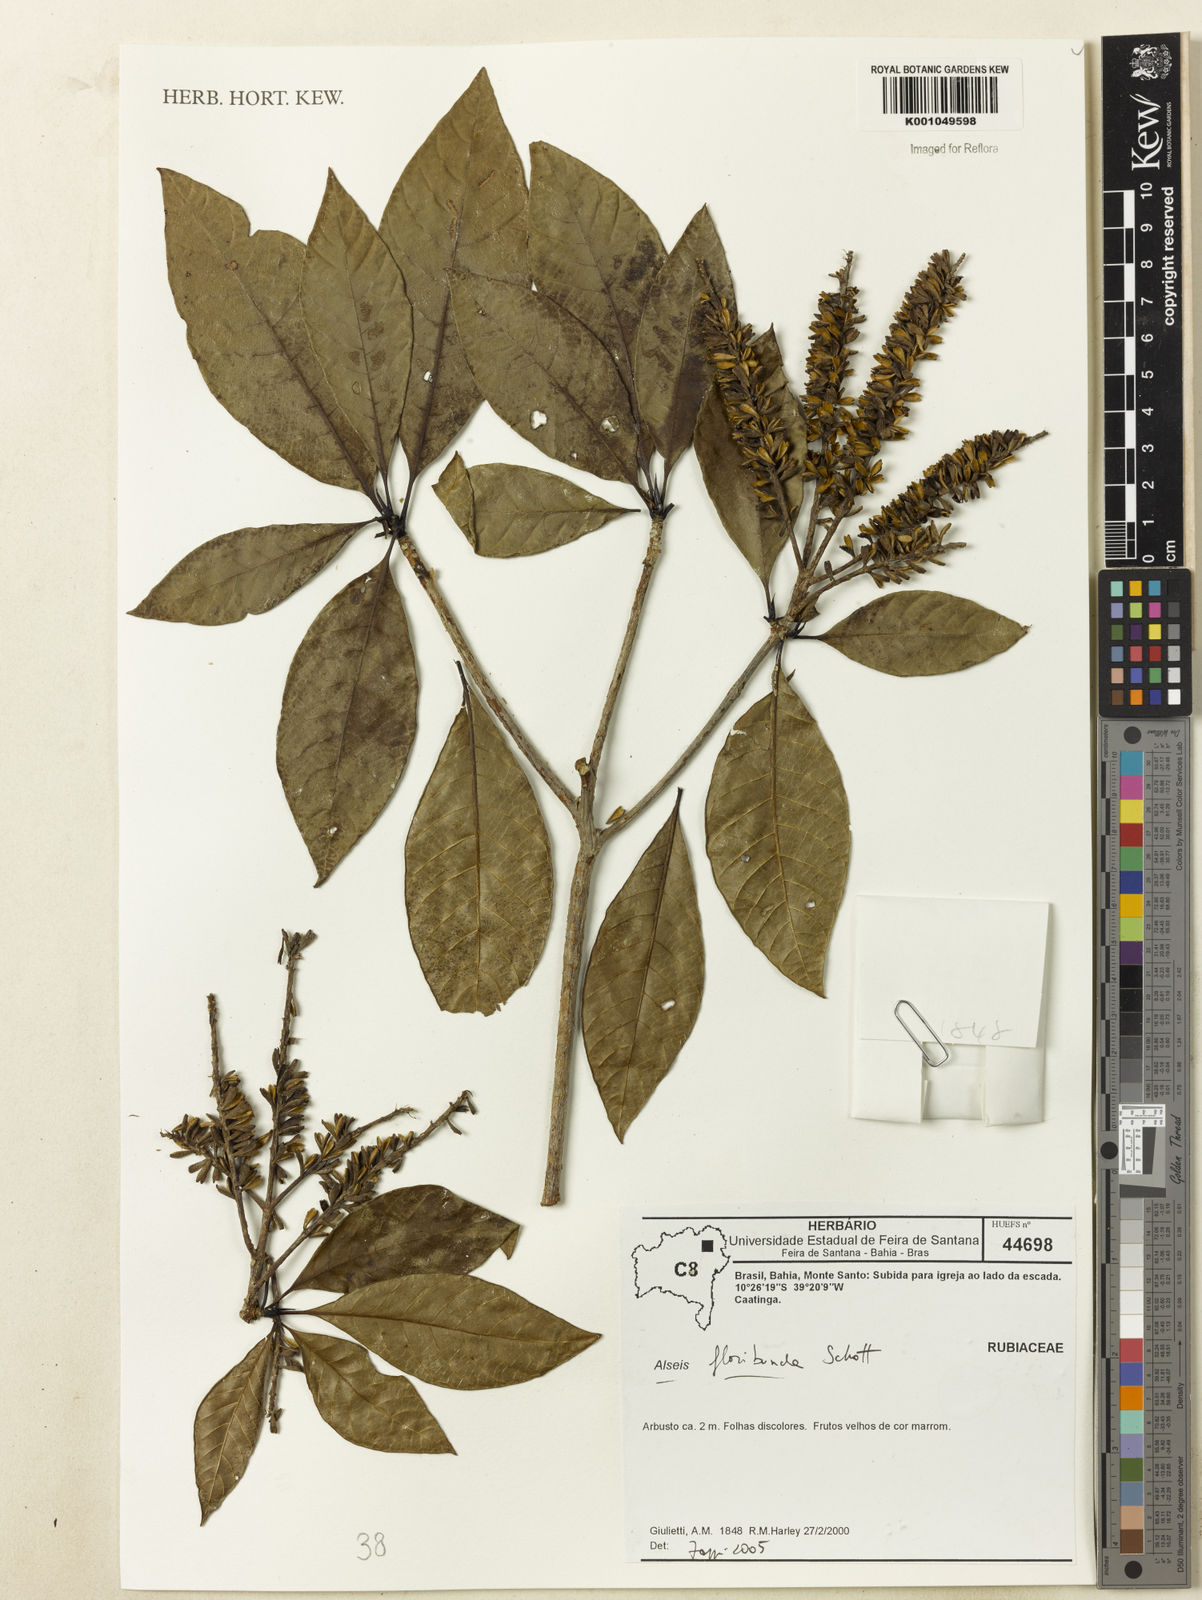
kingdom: Plantae
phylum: Tracheophyta
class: Magnoliopsida
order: Gentianales
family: Rubiaceae
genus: Alseis
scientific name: Alseis floribunda
